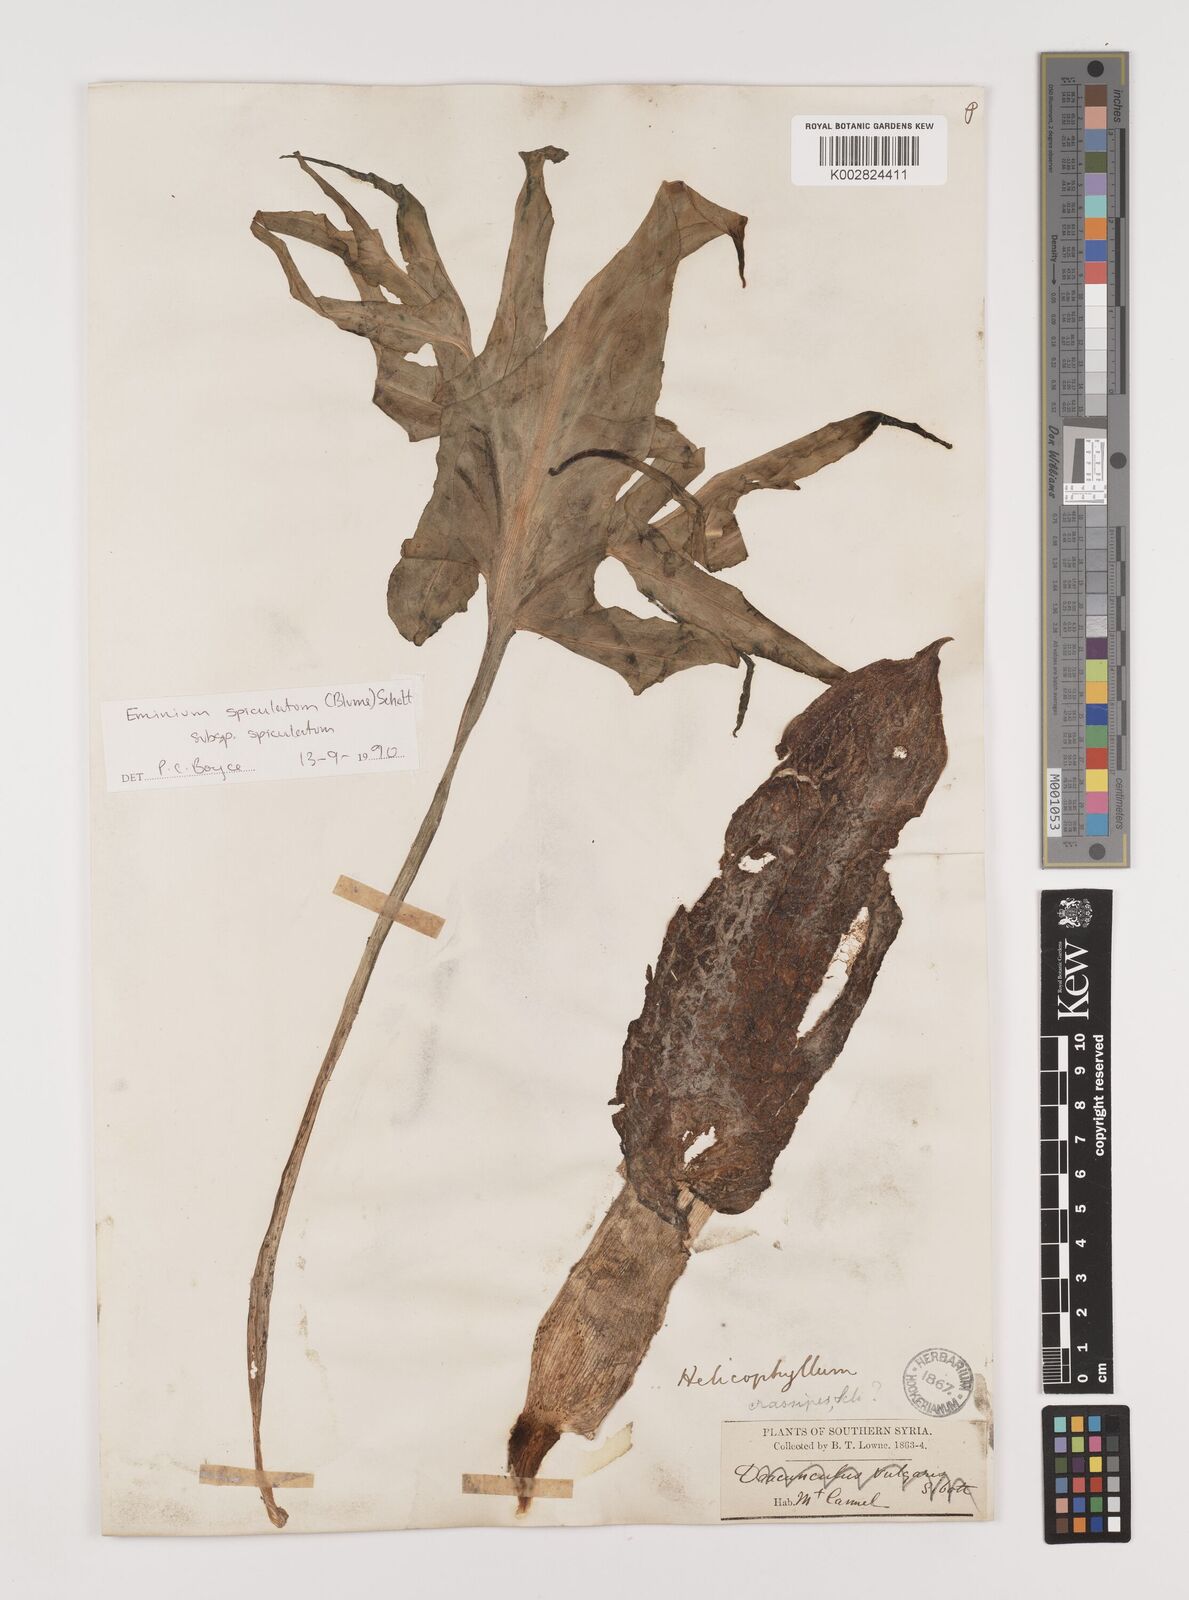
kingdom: Plantae
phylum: Tracheophyta
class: Liliopsida
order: Alismatales
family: Araceae
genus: Eminium
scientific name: Eminium spiculatum
